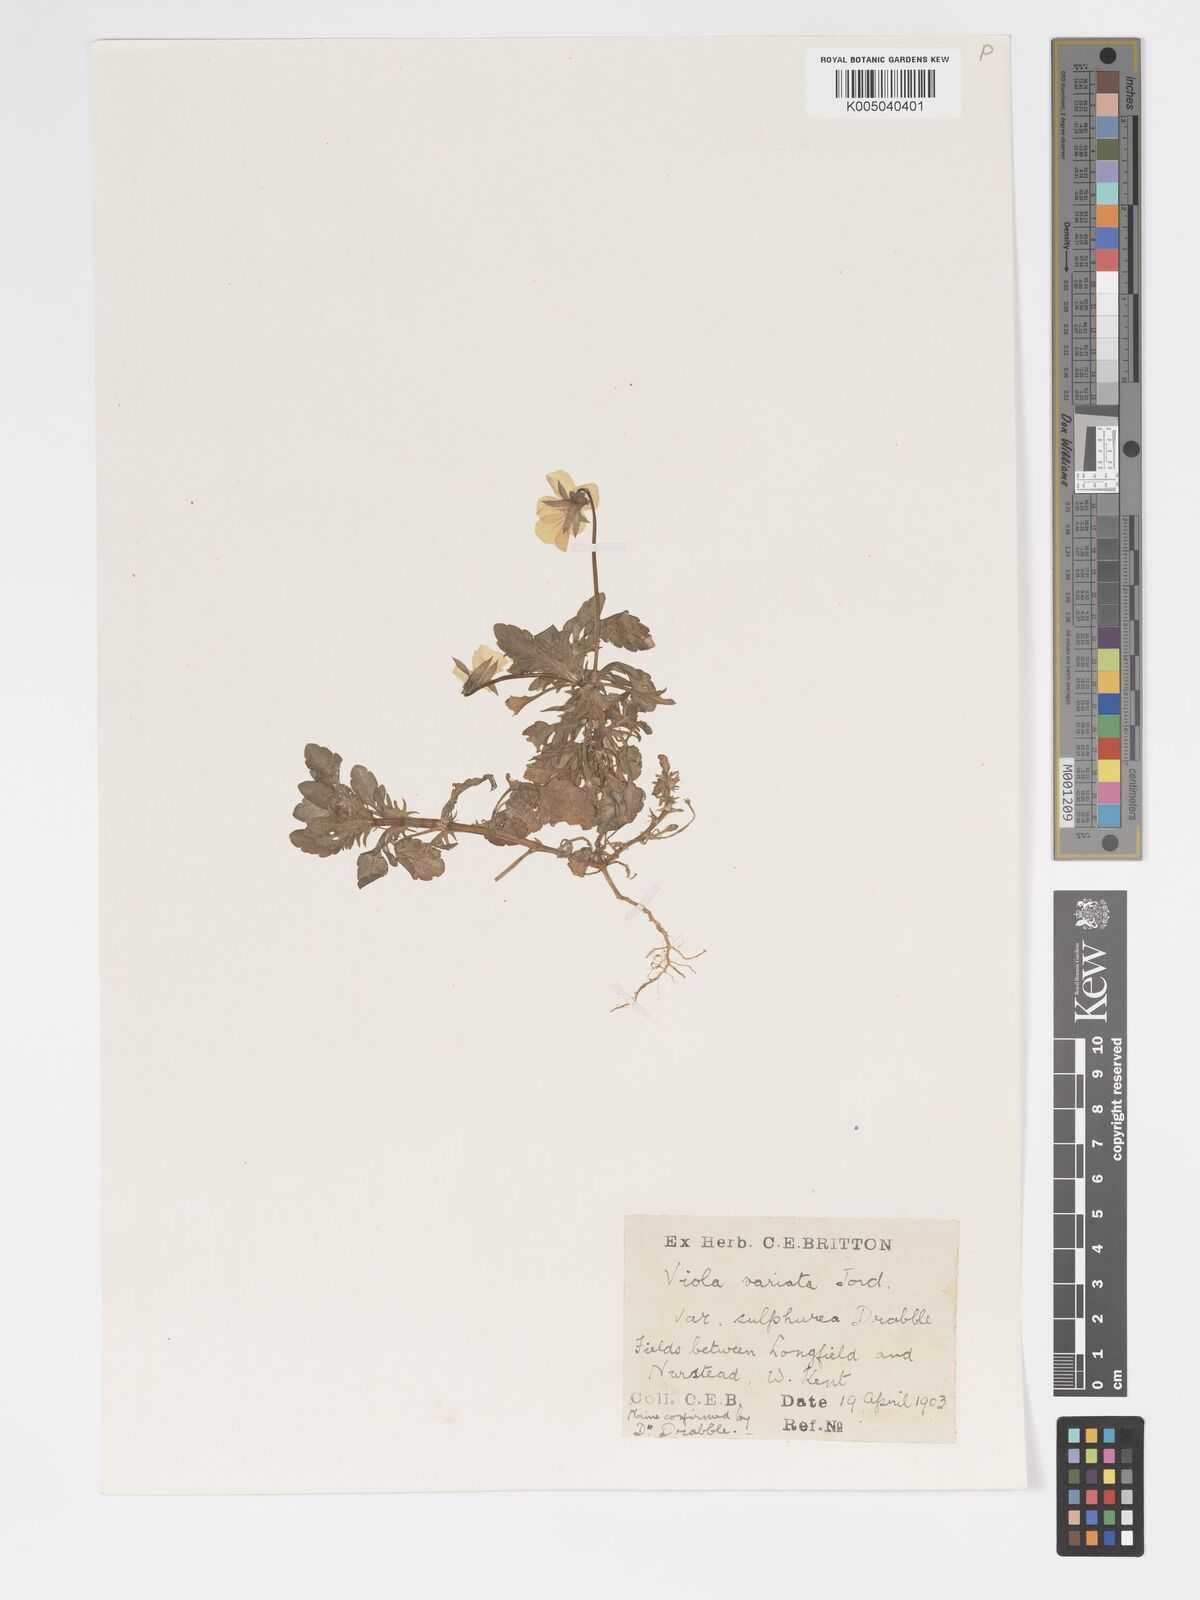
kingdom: Plantae
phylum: Tracheophyta
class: Magnoliopsida
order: Malpighiales
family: Violaceae
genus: Viola
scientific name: Viola arvensis
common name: Field pansy
